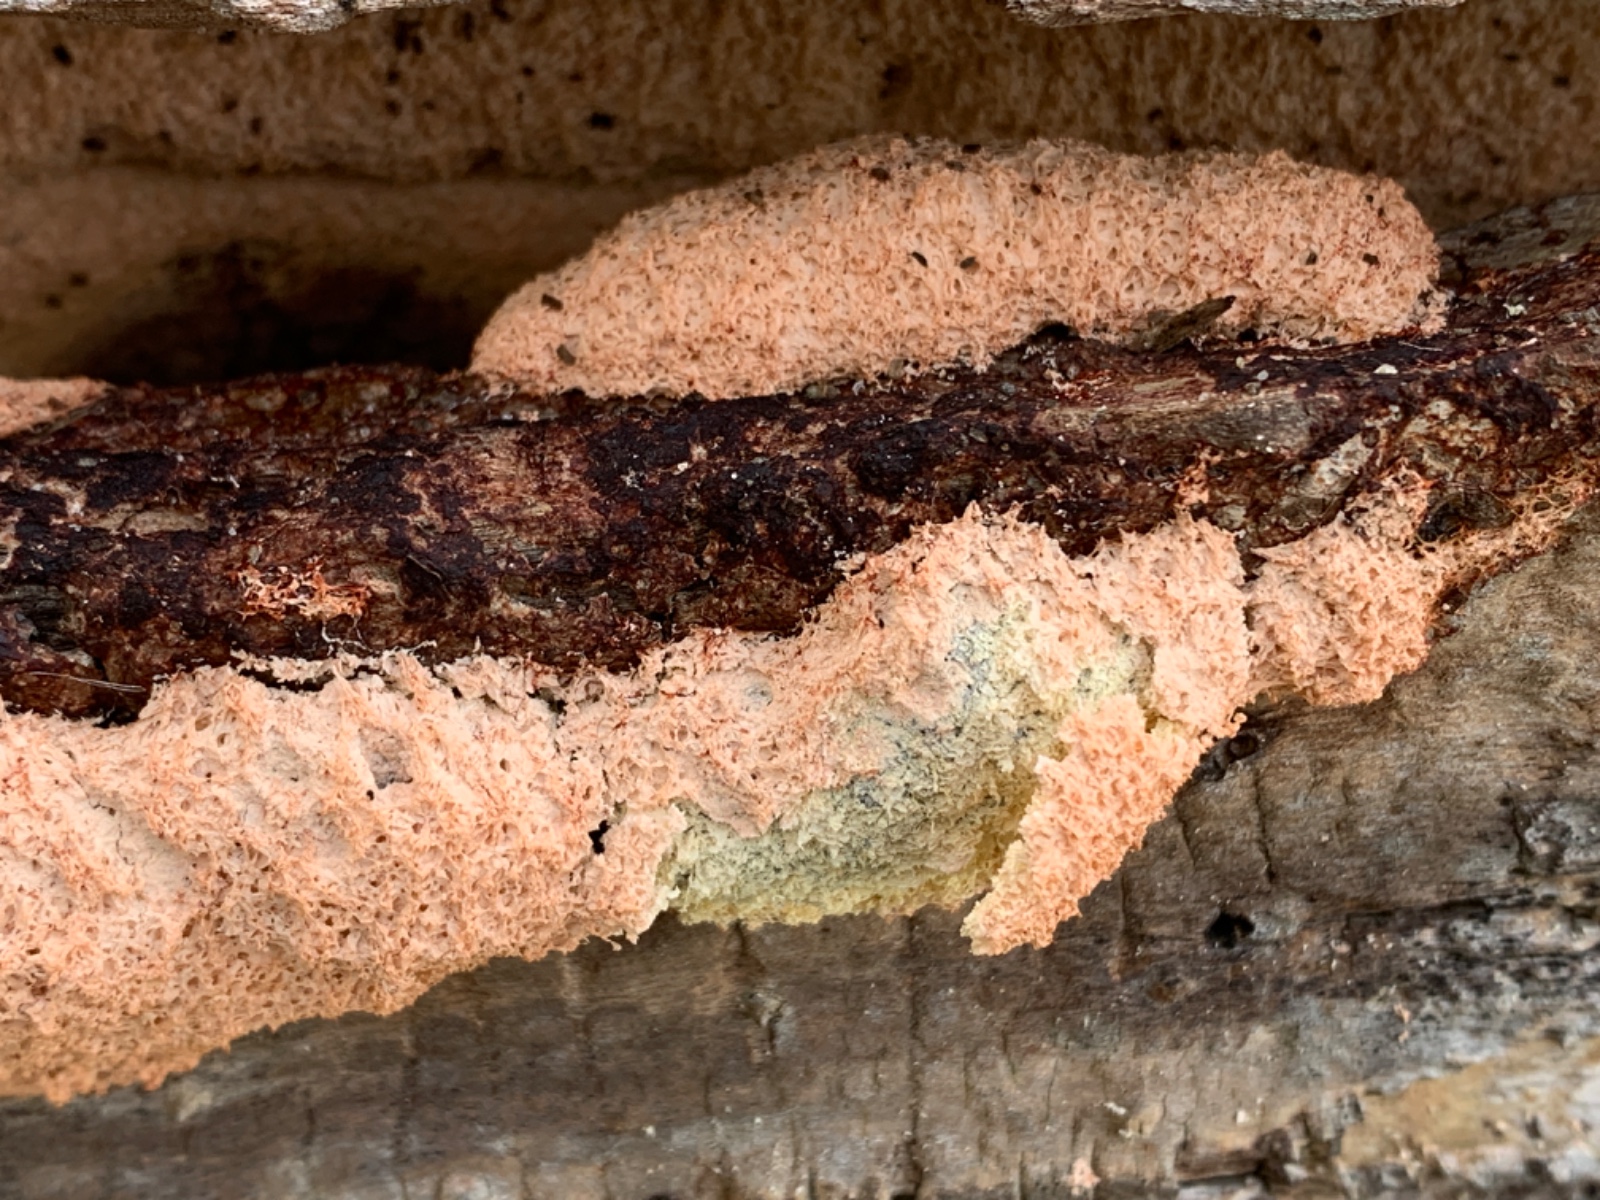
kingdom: Protozoa
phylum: Mycetozoa
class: Myxomycetes
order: Physarales
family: Physaraceae
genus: Fuligo
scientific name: Fuligo septica
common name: Dog vomit slime mold
